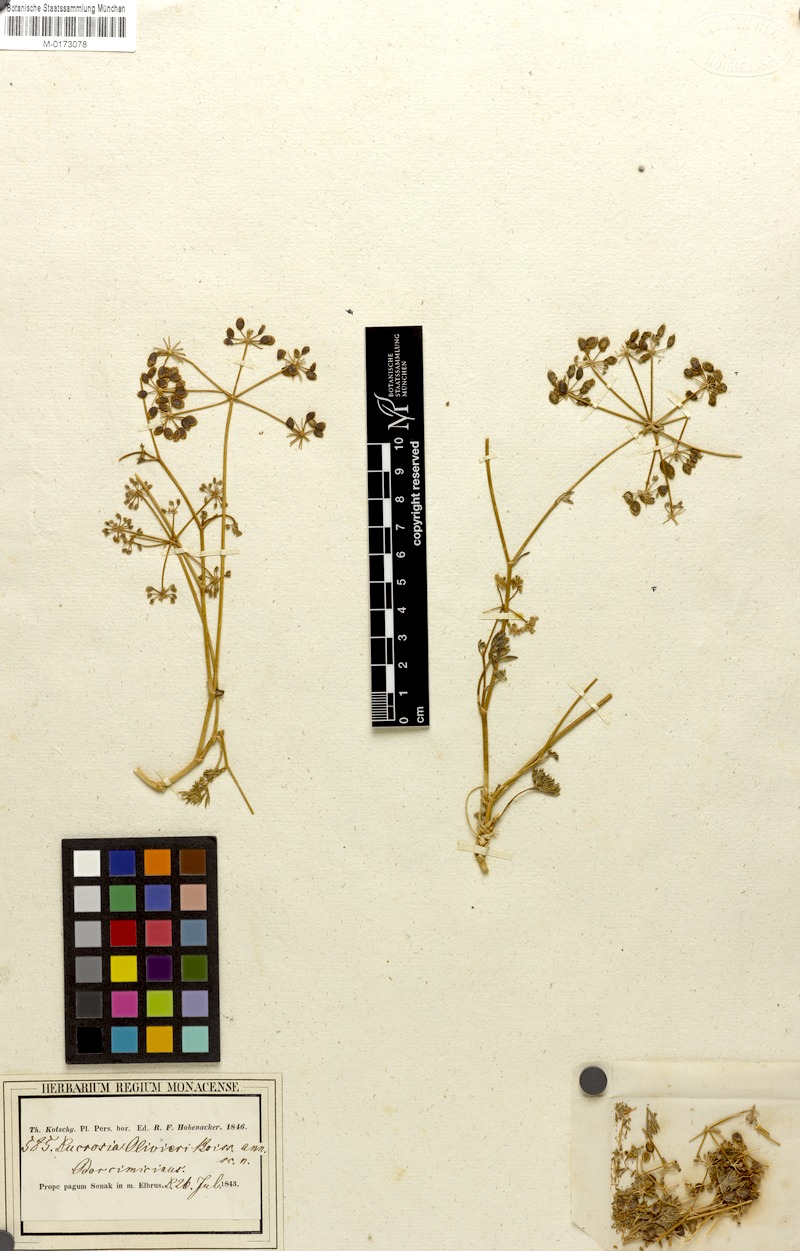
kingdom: Plantae
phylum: Tracheophyta
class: Magnoliopsida
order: Apiales
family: Apiaceae
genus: Ducrosia
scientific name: Ducrosia anethifolia
